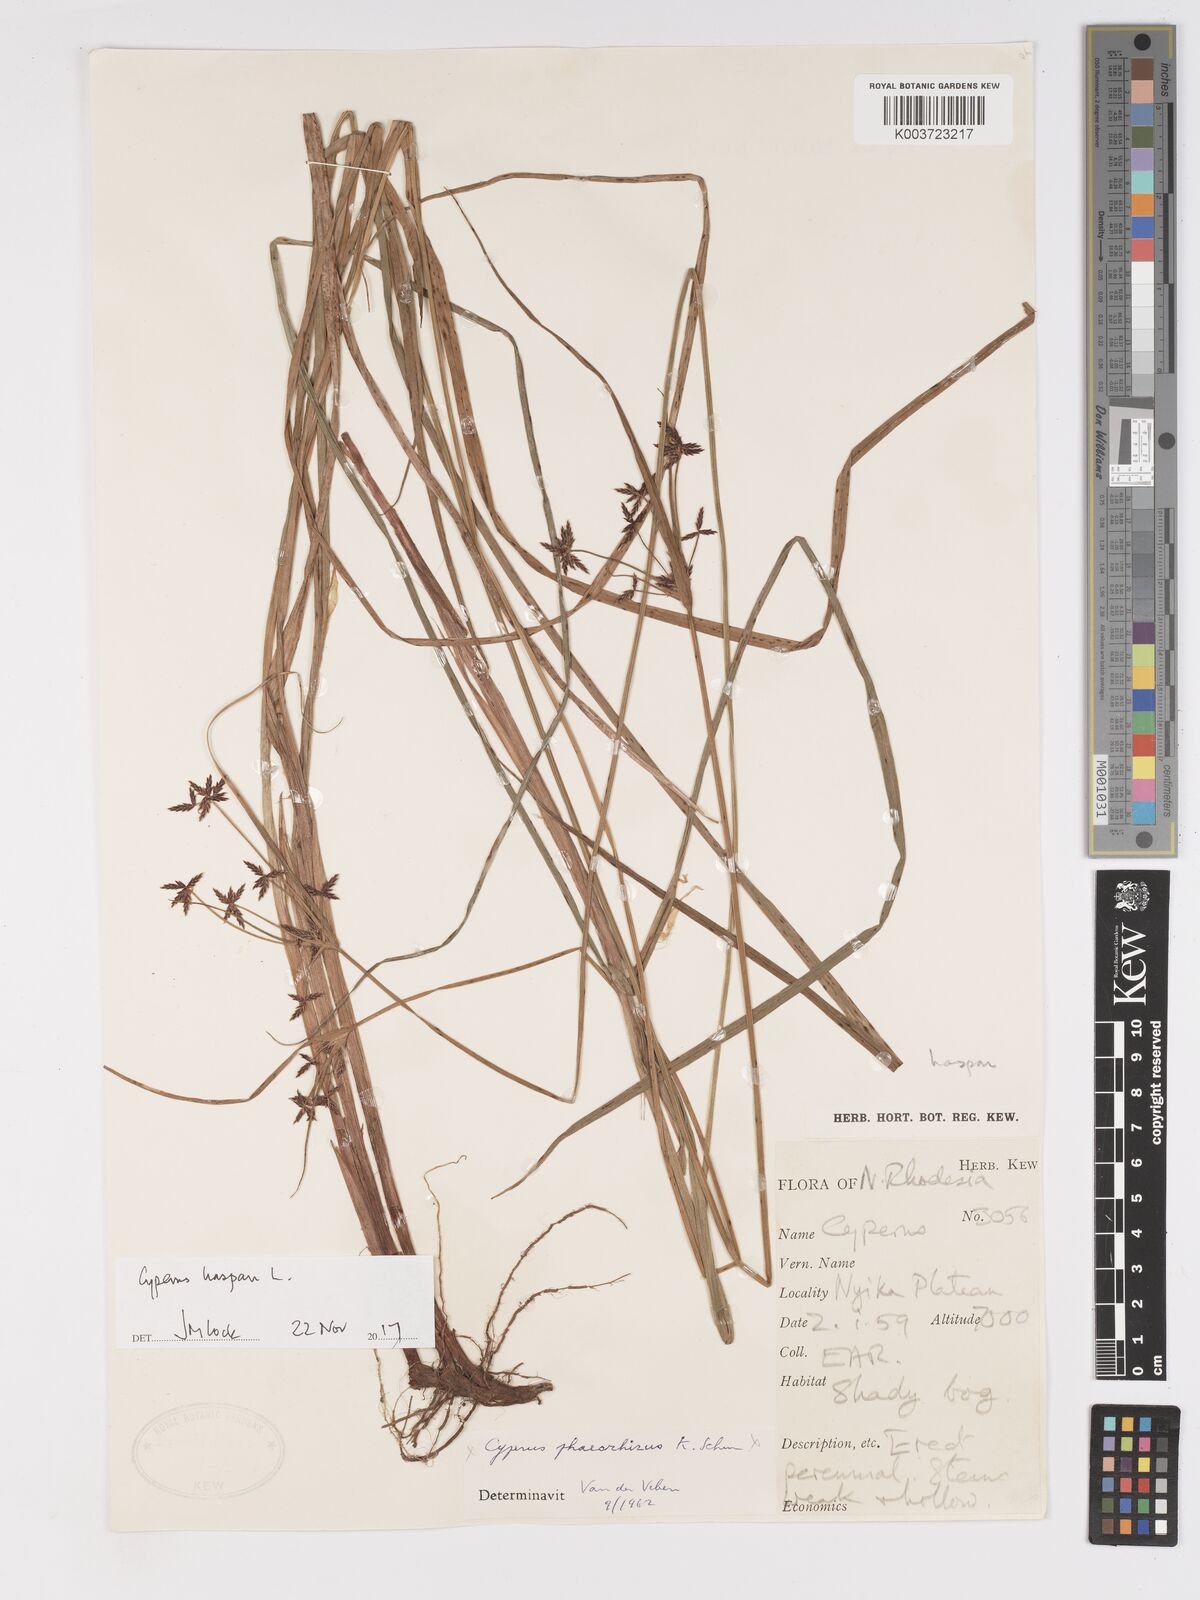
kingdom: Plantae
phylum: Tracheophyta
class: Liliopsida
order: Poales
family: Cyperaceae
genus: Cyperus
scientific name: Cyperus haspan
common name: Haspan flatsedge
